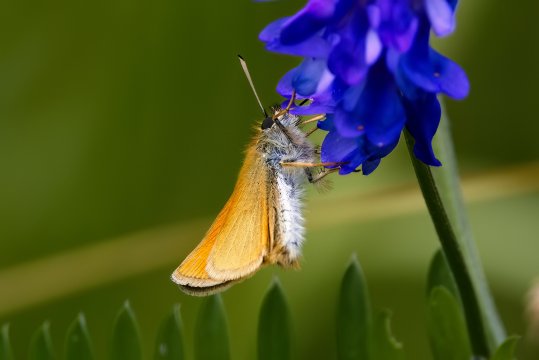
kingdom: Animalia
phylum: Arthropoda
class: Insecta
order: Lepidoptera
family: Hesperiidae
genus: Thymelicus
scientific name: Thymelicus lineola
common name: European Skipper
